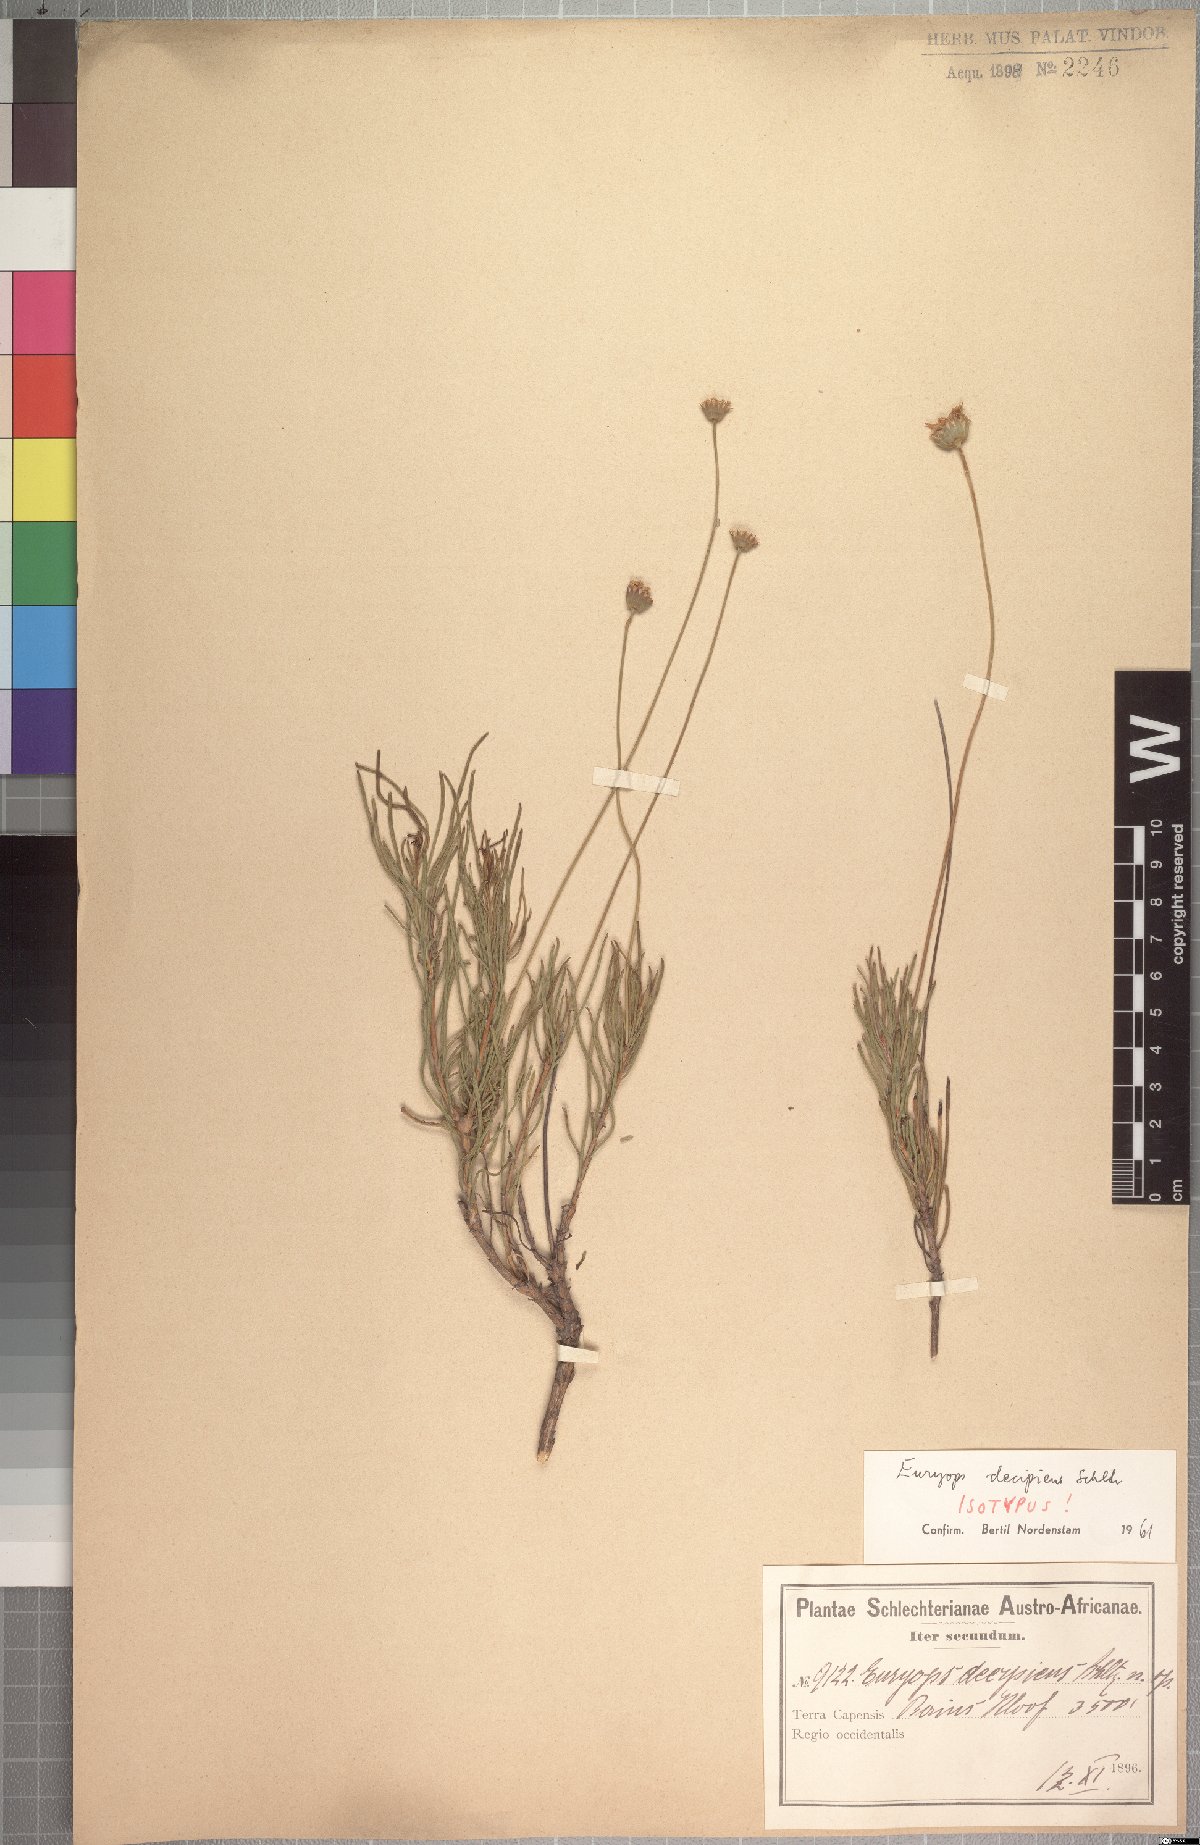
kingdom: Plantae
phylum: Tracheophyta
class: Magnoliopsida
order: Asterales
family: Asteraceae
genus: Euryops
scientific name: Euryops decipiens
